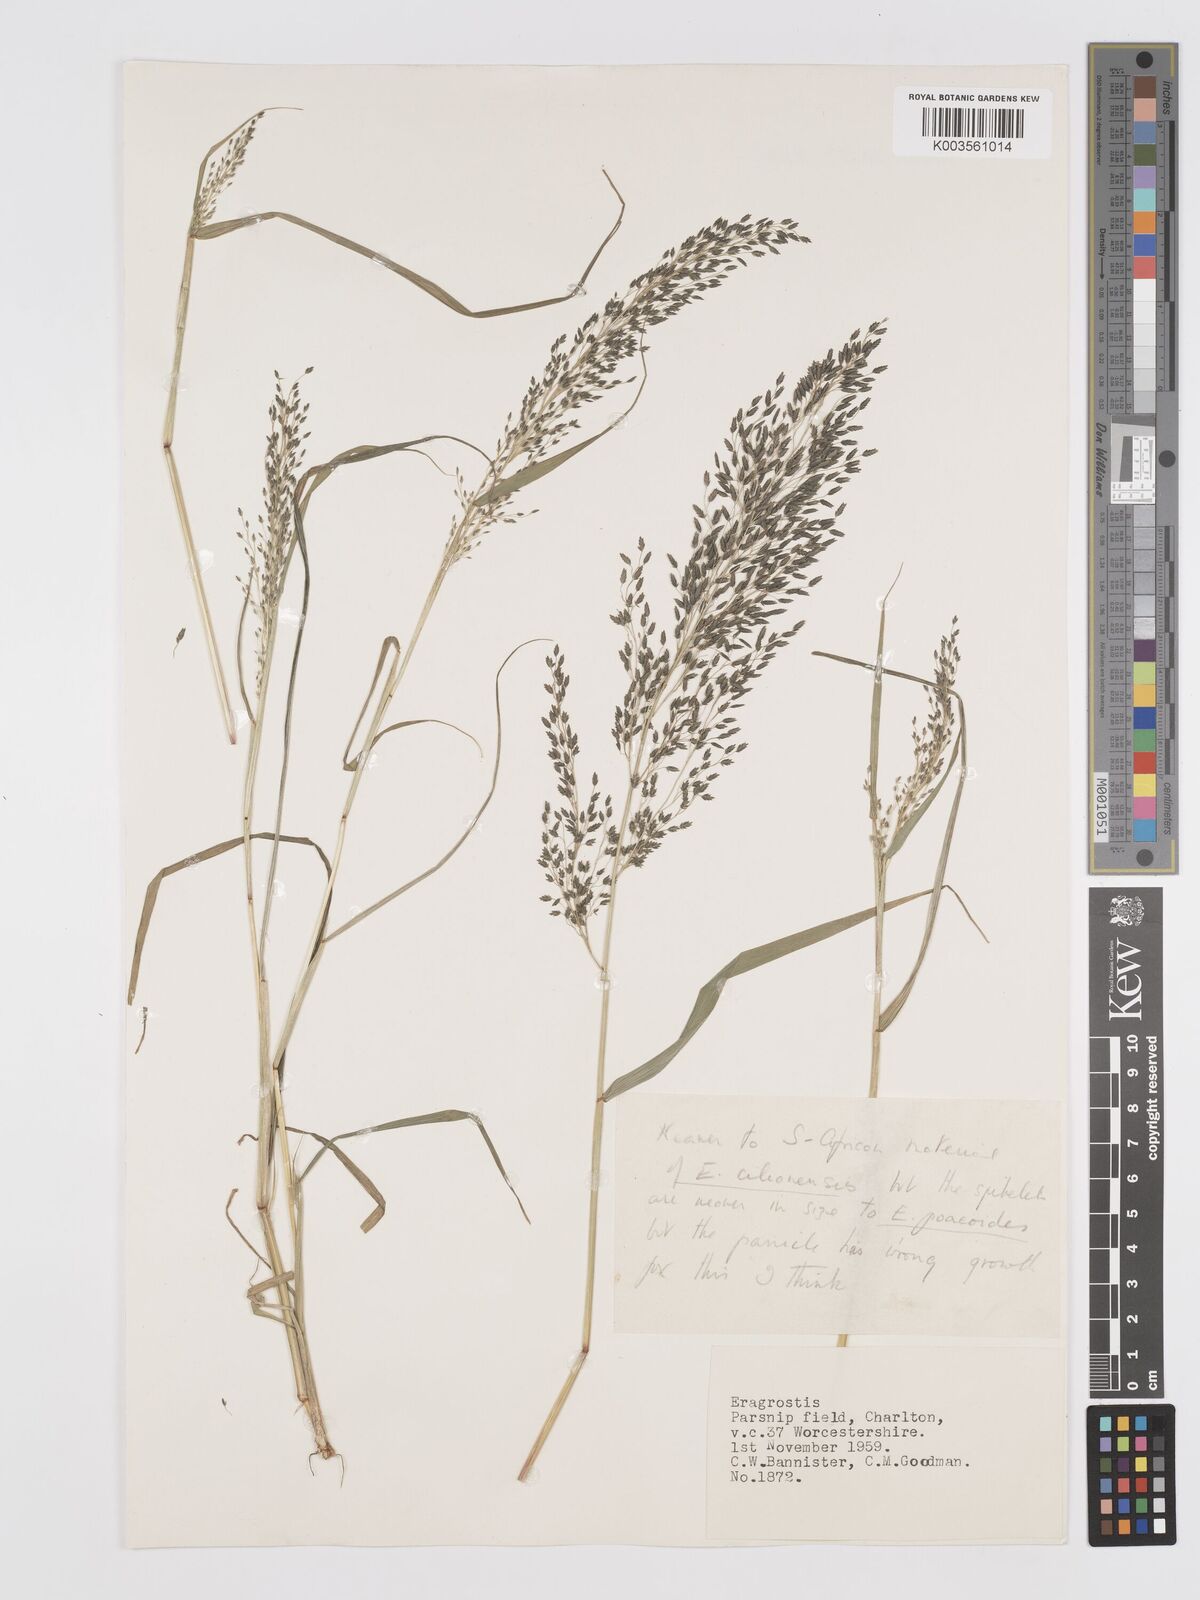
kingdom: Plantae
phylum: Tracheophyta
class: Liliopsida
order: Poales
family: Poaceae
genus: Eragrostis
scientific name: Eragrostis
